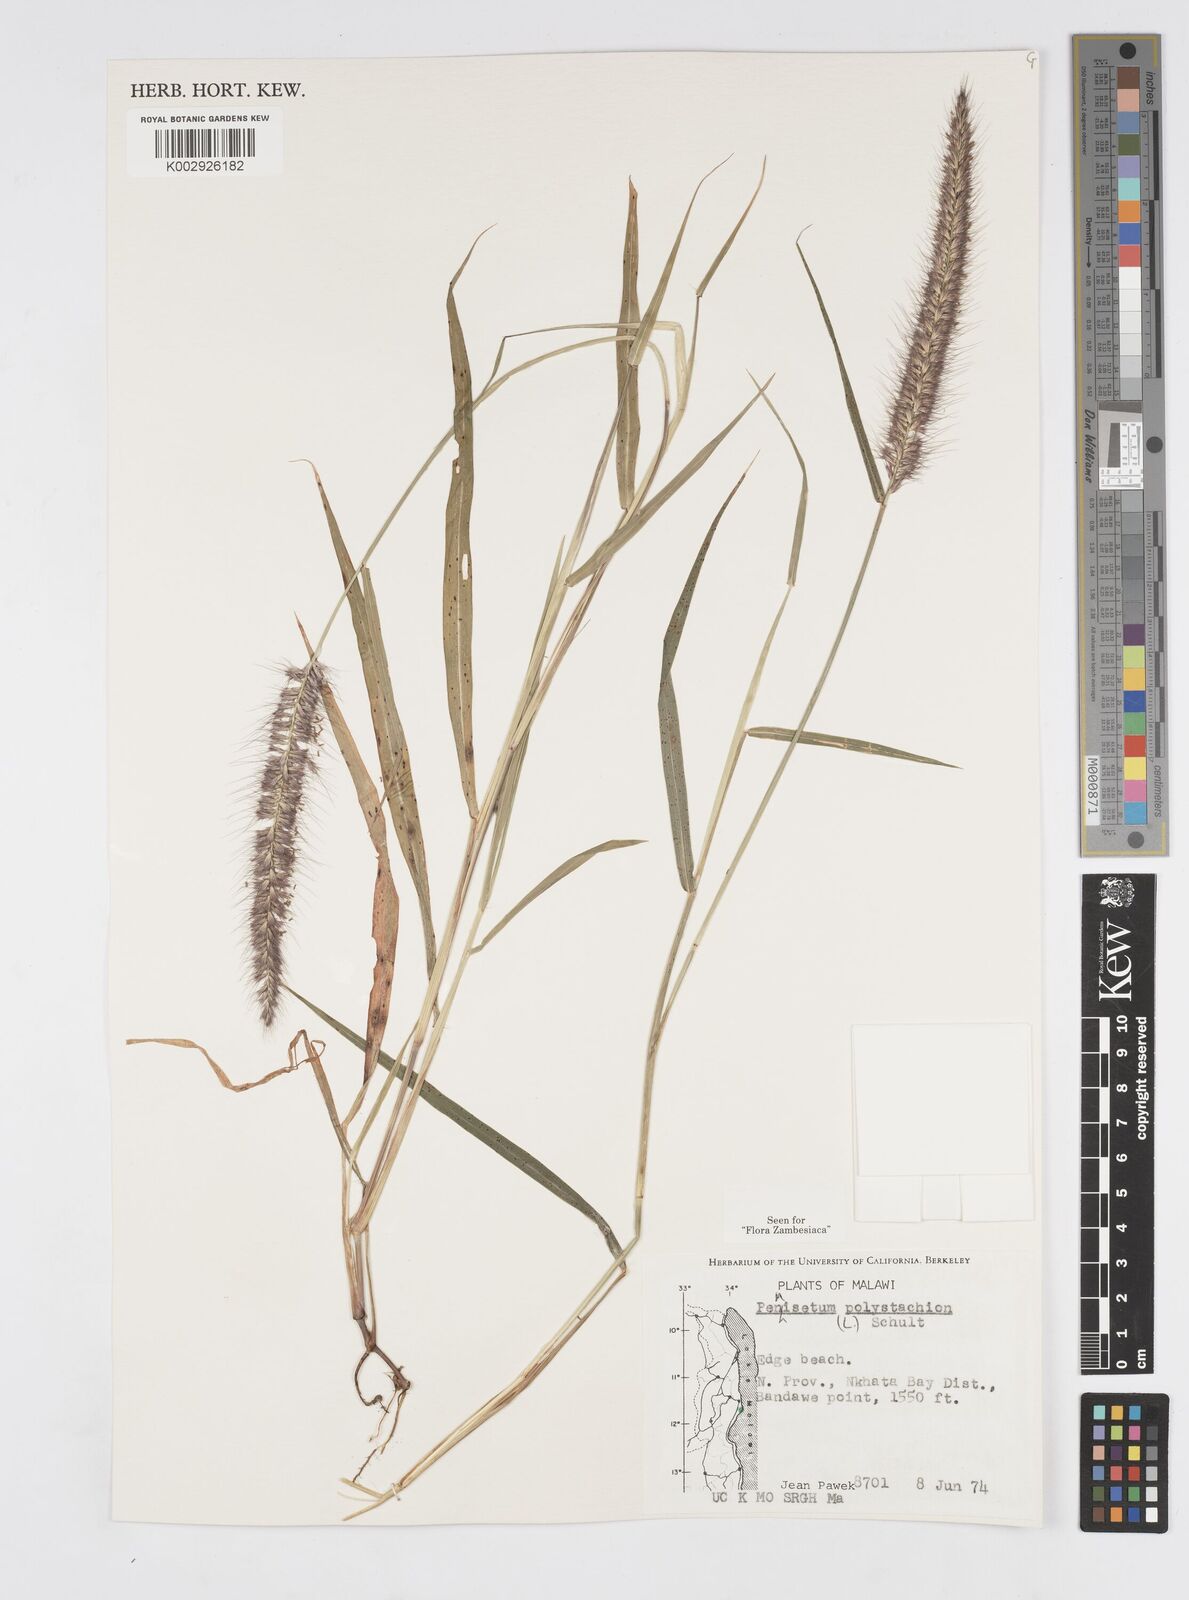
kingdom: Plantae
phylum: Tracheophyta
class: Liliopsida
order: Poales
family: Poaceae
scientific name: Poaceae
